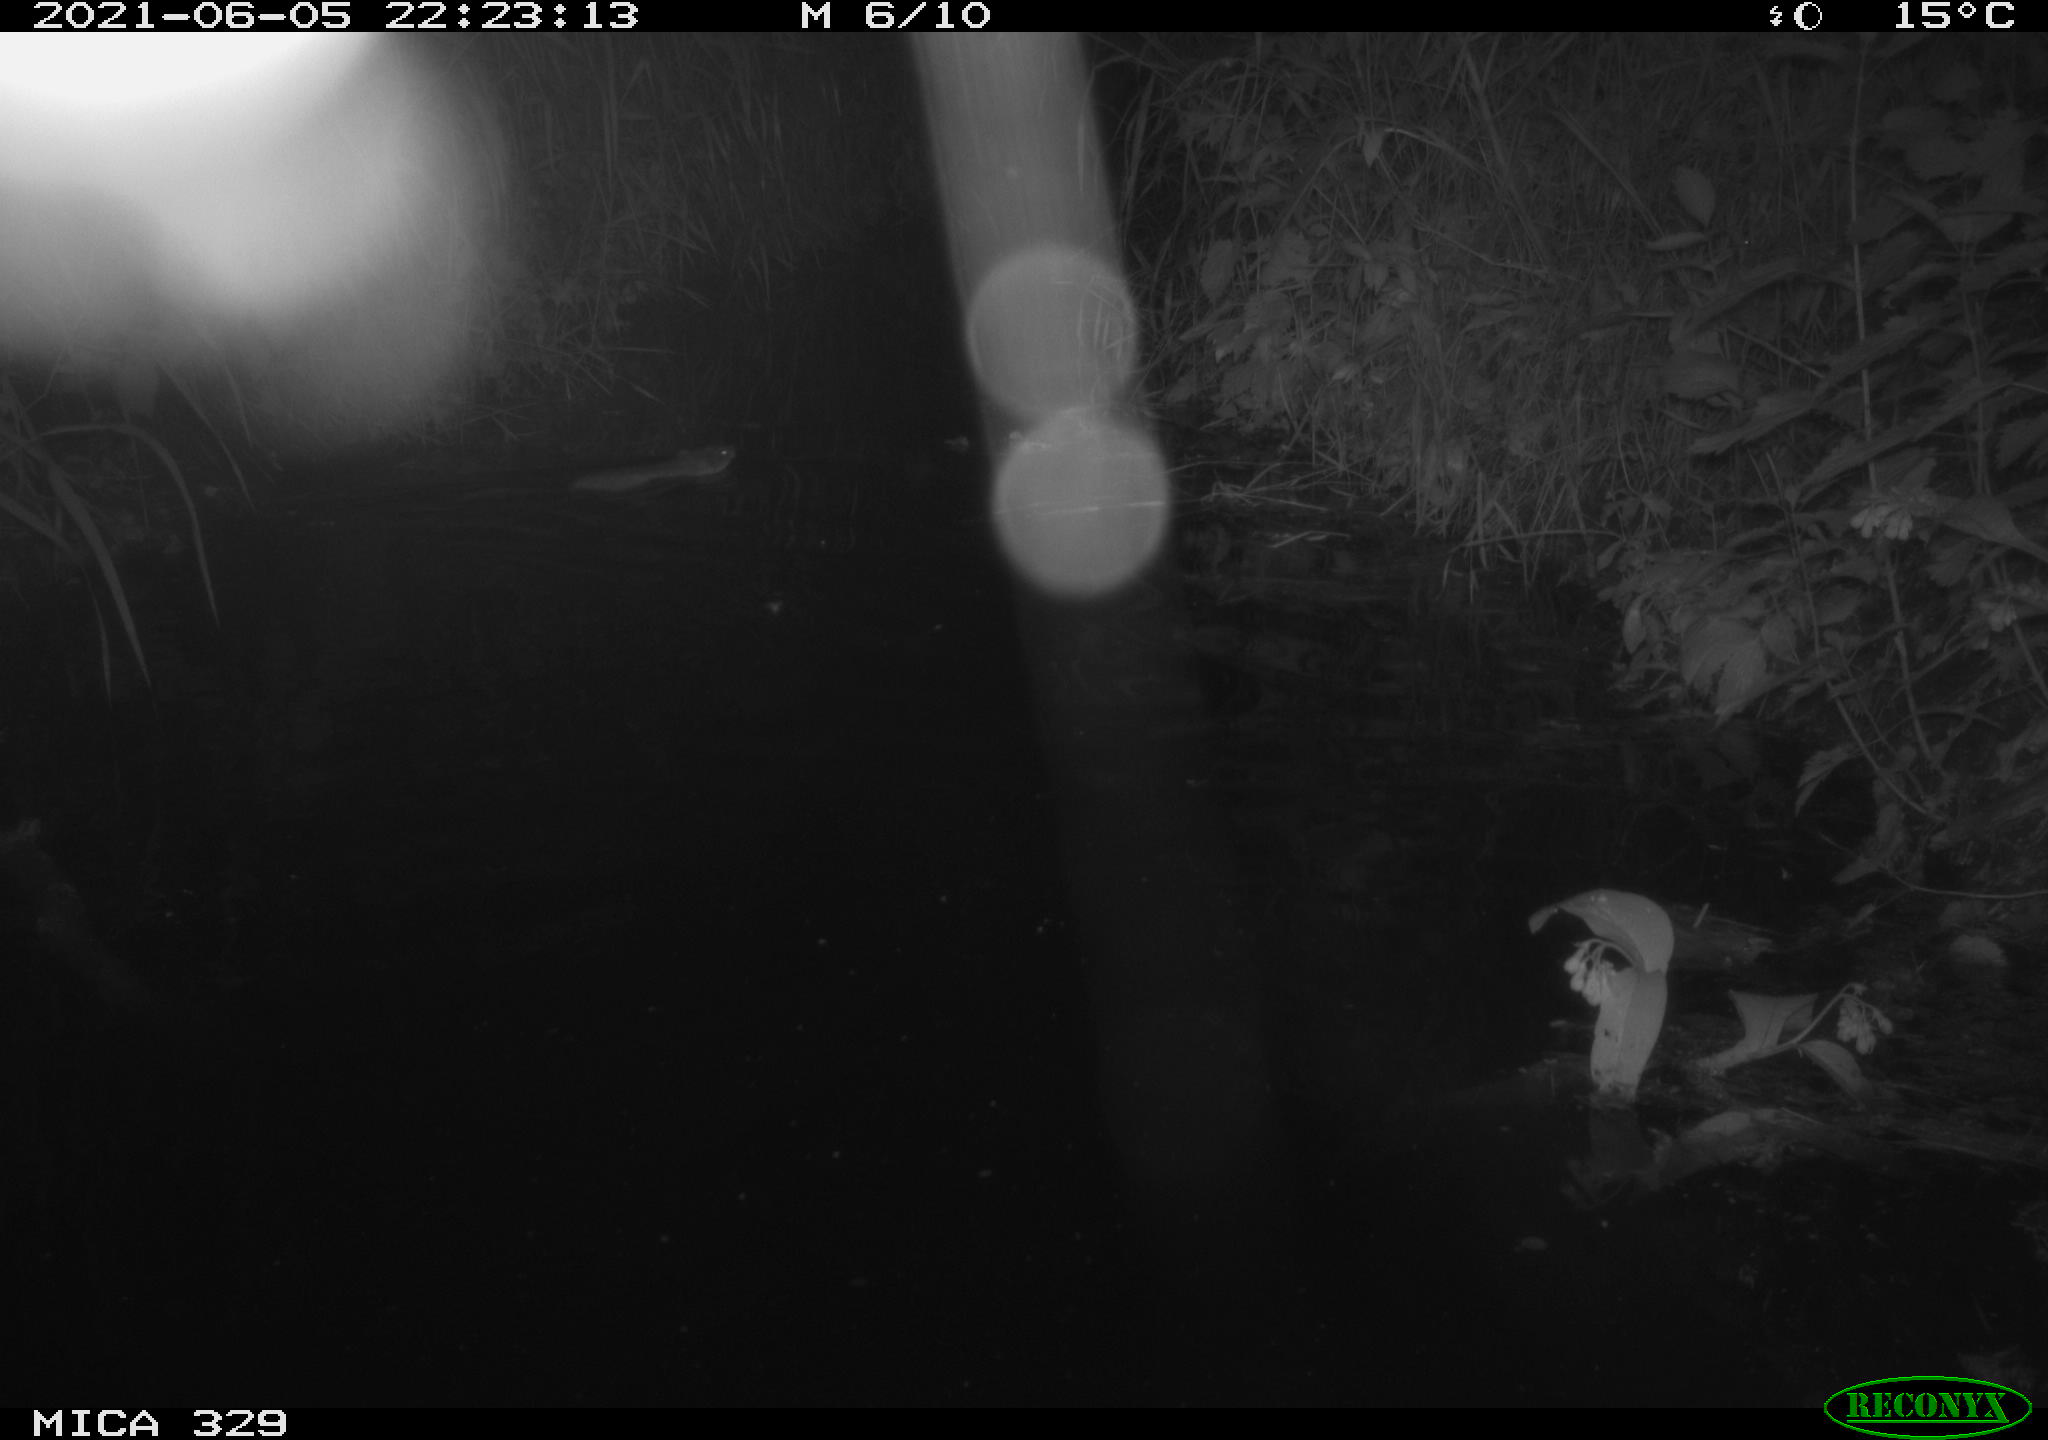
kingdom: Animalia
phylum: Chordata
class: Mammalia
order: Rodentia
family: Cricetidae
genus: Ondatra
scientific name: Ondatra zibethicus
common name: Muskrat
